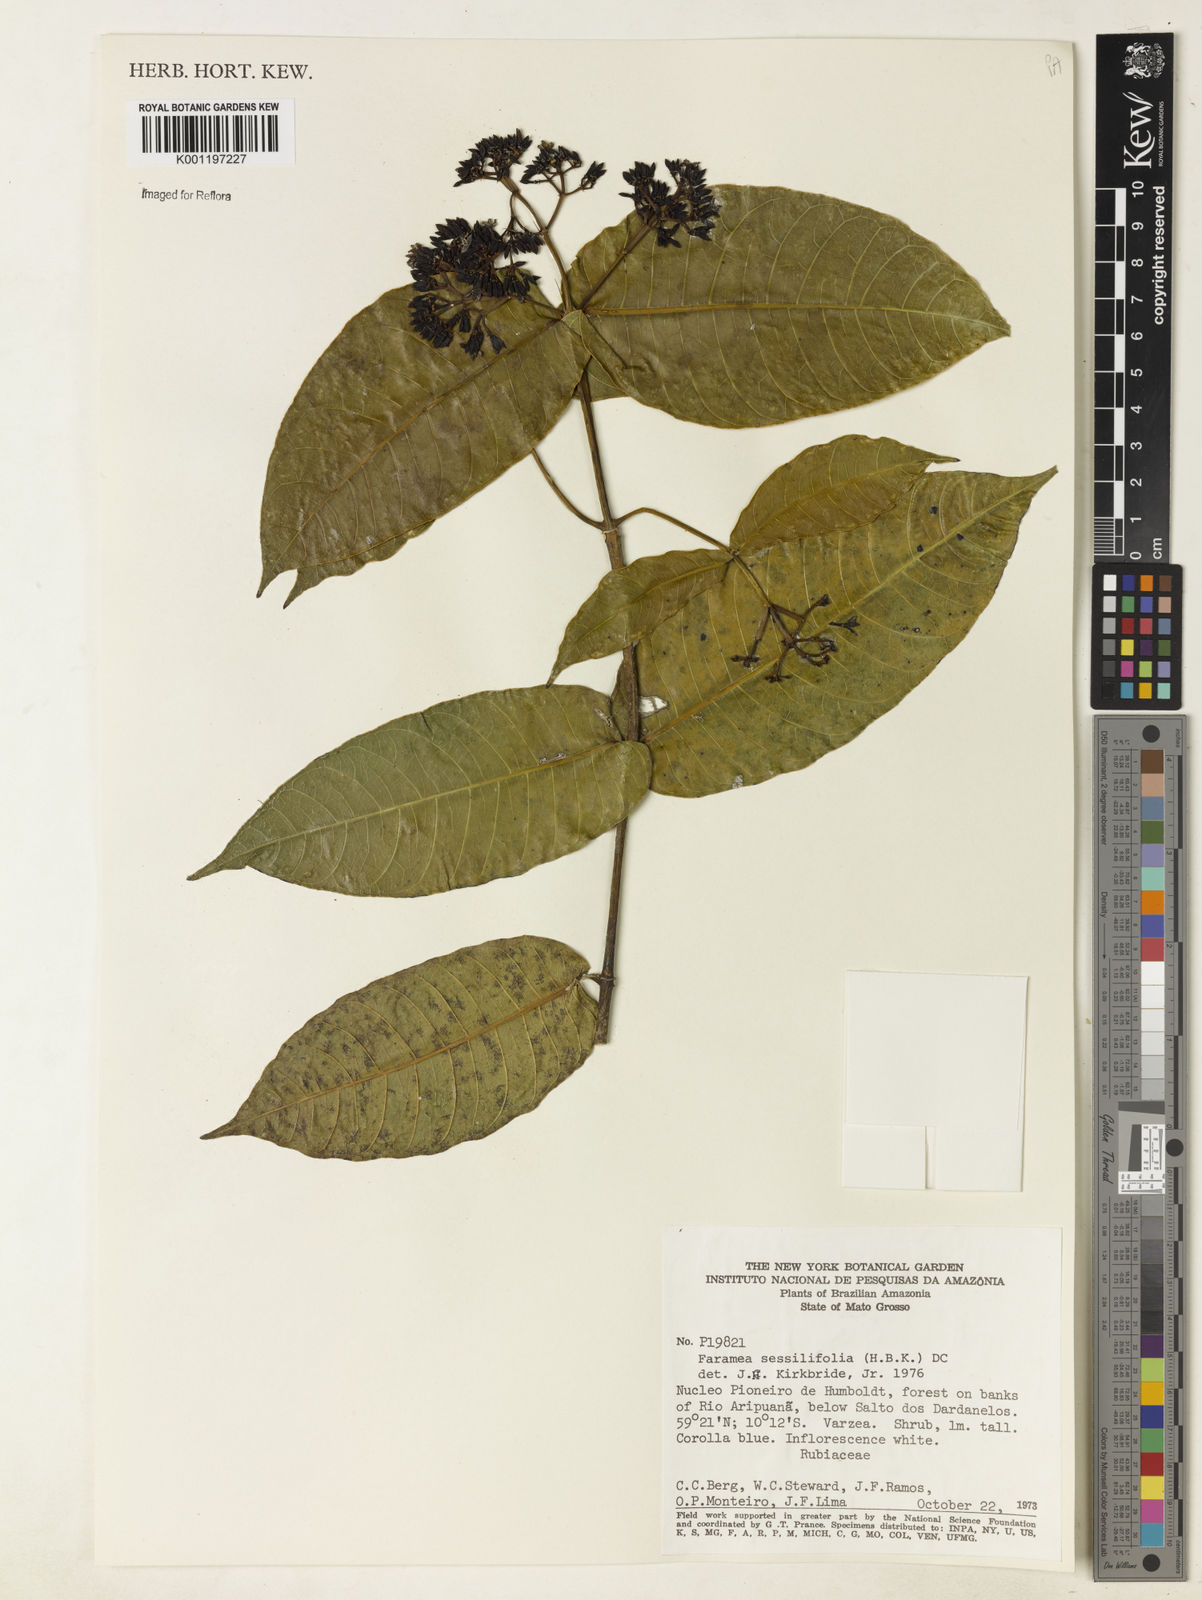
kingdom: Plantae
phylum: Tracheophyta
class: Magnoliopsida
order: Gentianales
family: Rubiaceae
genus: Faramea
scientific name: Faramea sessilifolia
